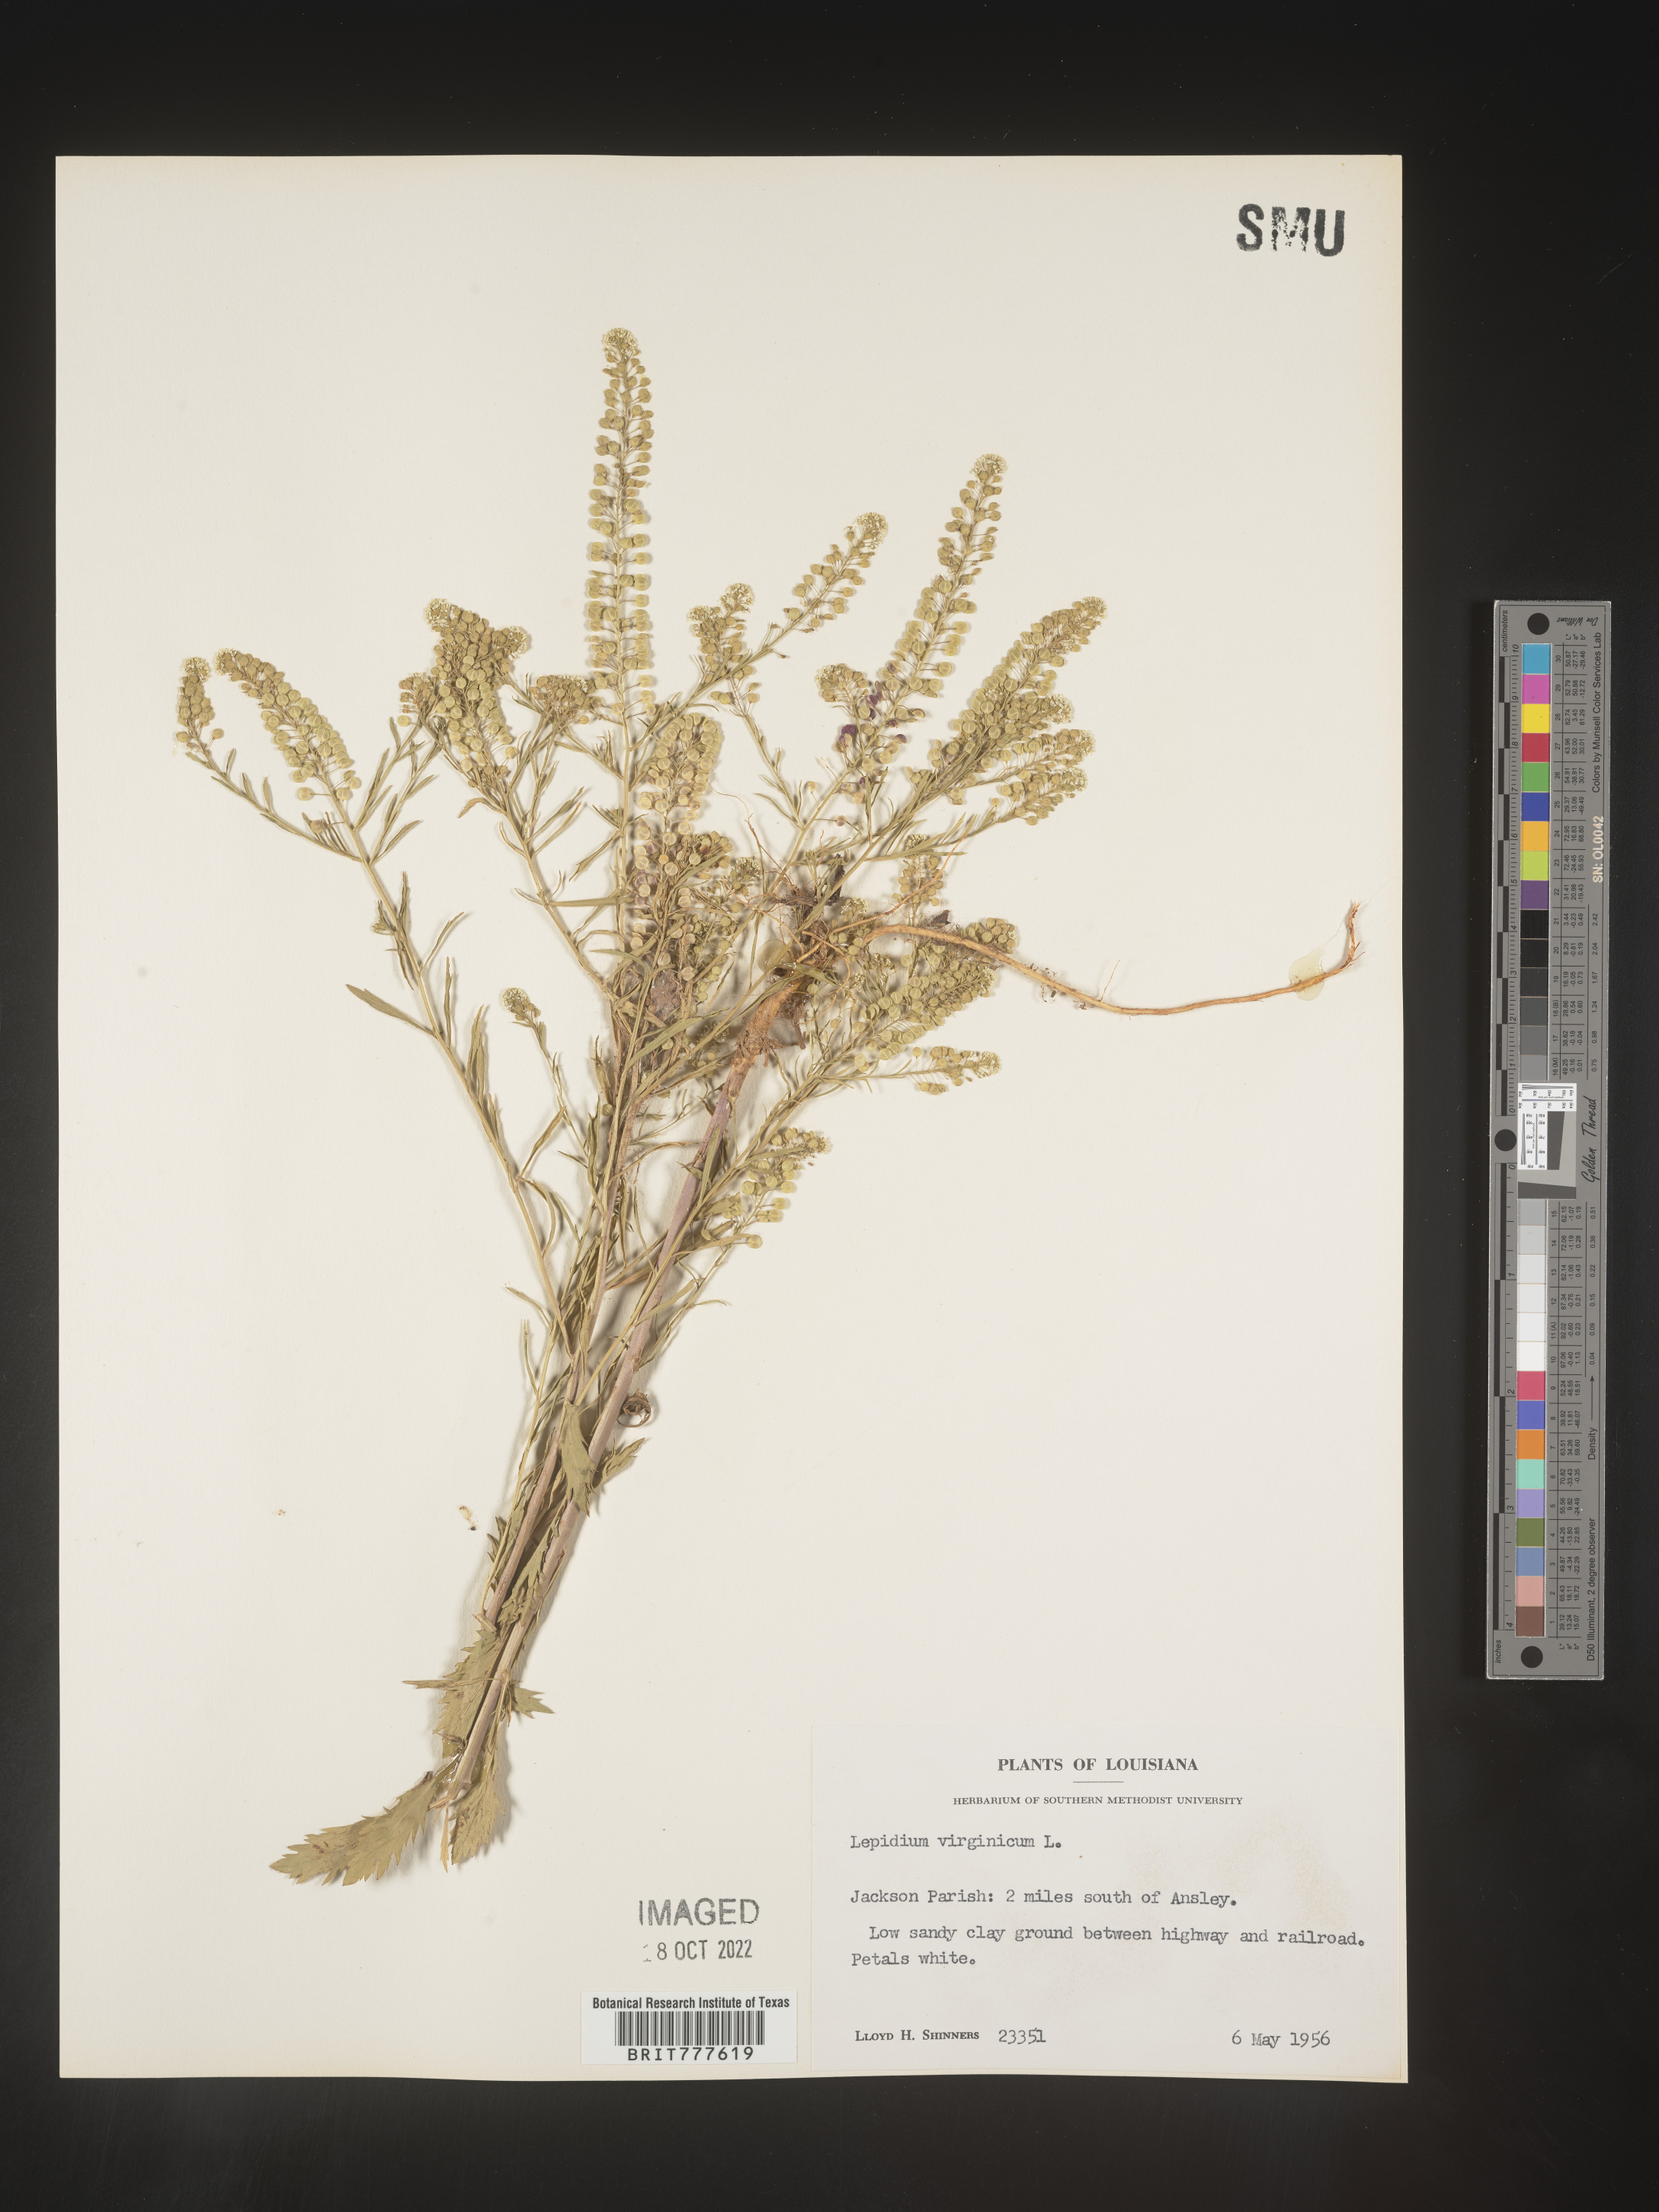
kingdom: Plantae
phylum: Tracheophyta
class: Magnoliopsida
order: Brassicales
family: Brassicaceae
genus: Lepidium
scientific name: Lepidium virginicum
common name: Least pepperwort
